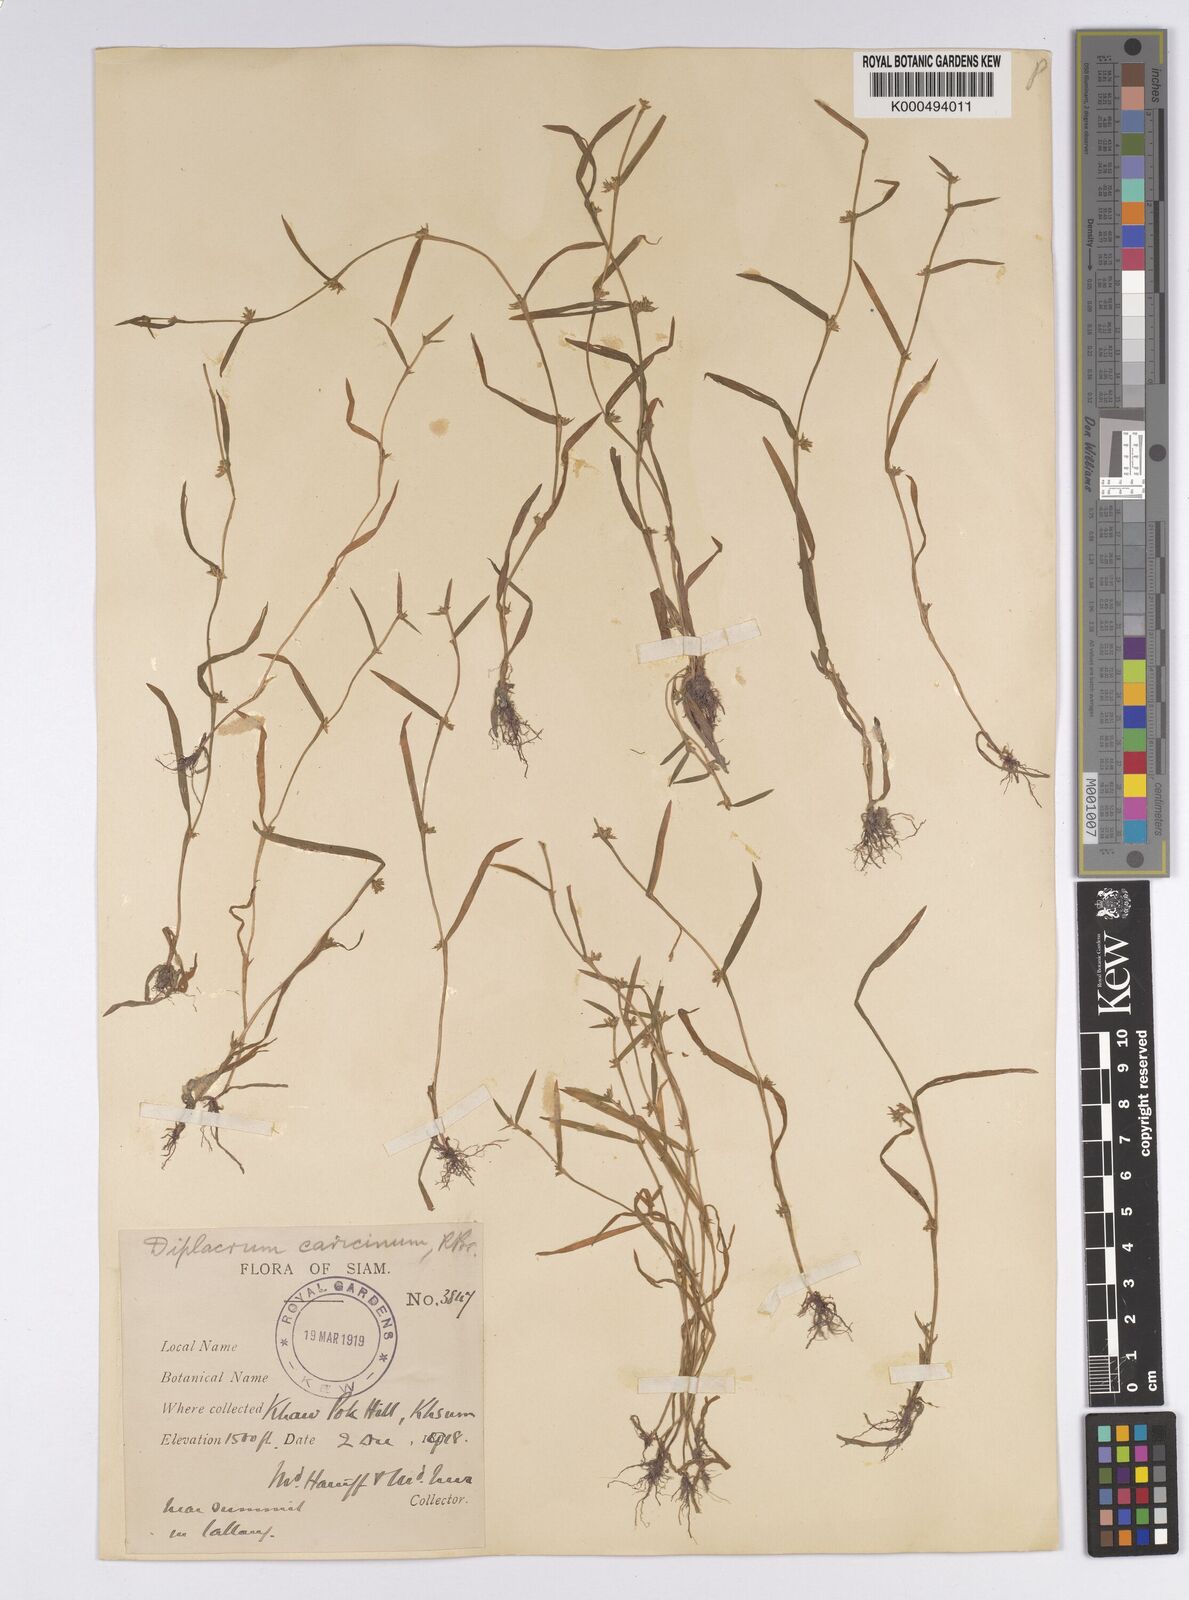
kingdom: Plantae
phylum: Tracheophyta
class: Liliopsida
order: Poales
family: Cyperaceae
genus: Diplacrum
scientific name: Diplacrum caricinum
